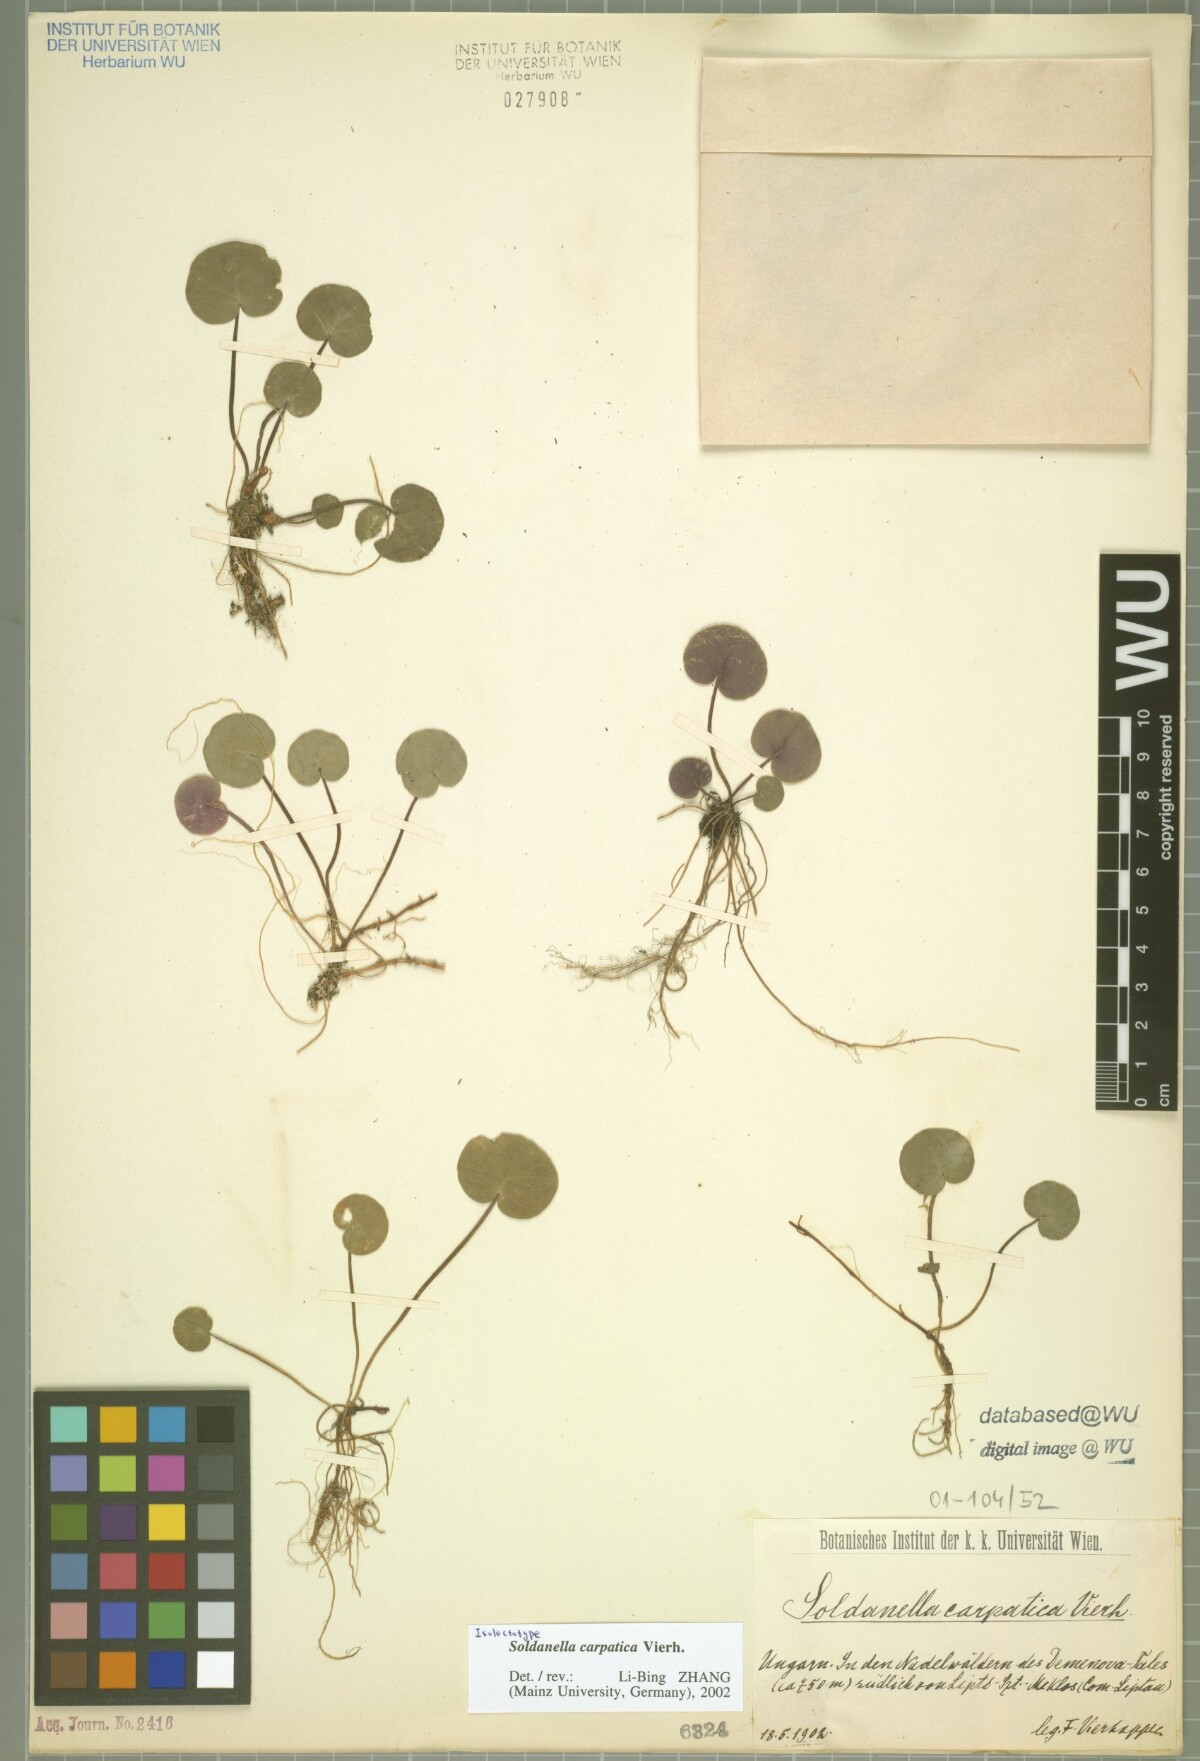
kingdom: Plantae
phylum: Tracheophyta
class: Magnoliopsida
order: Ericales
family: Primulaceae
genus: Soldanella
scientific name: Soldanella carpatica
